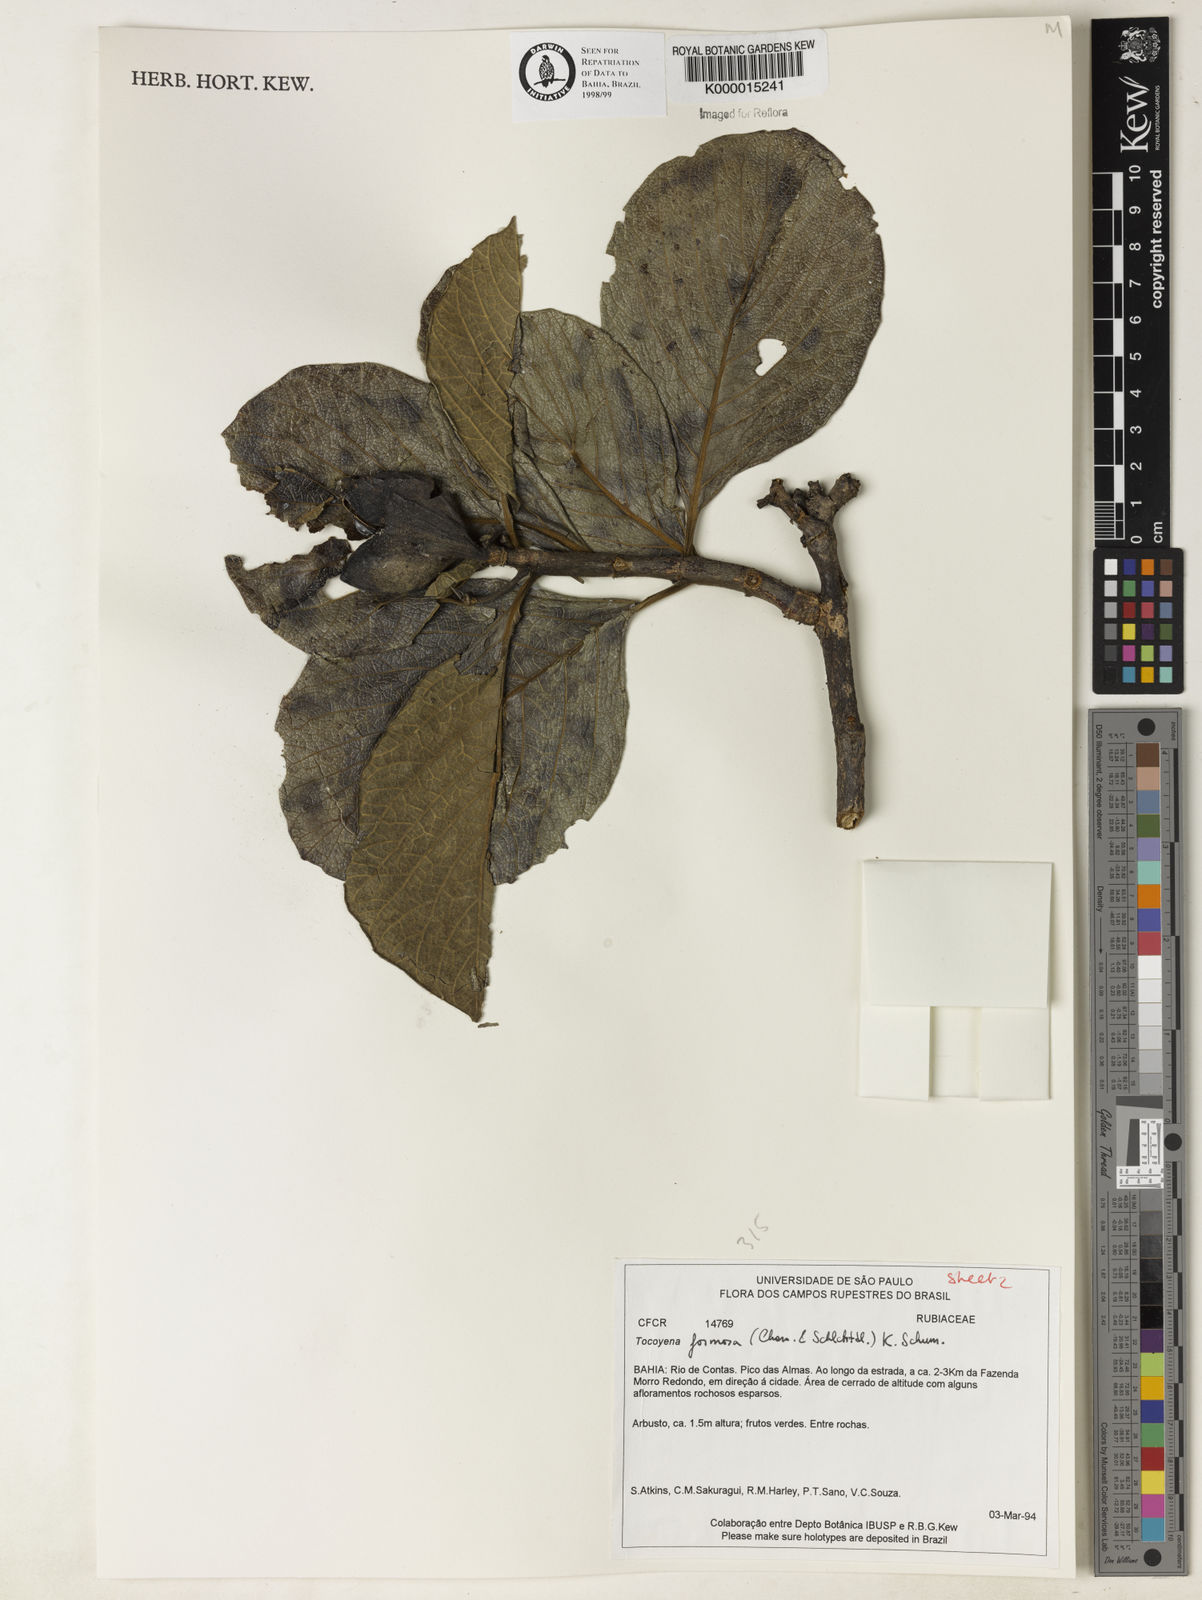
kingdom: Plantae
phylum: Tracheophyta
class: Magnoliopsida
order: Gentianales
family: Rubiaceae
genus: Tocoyena
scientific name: Tocoyena formosa
